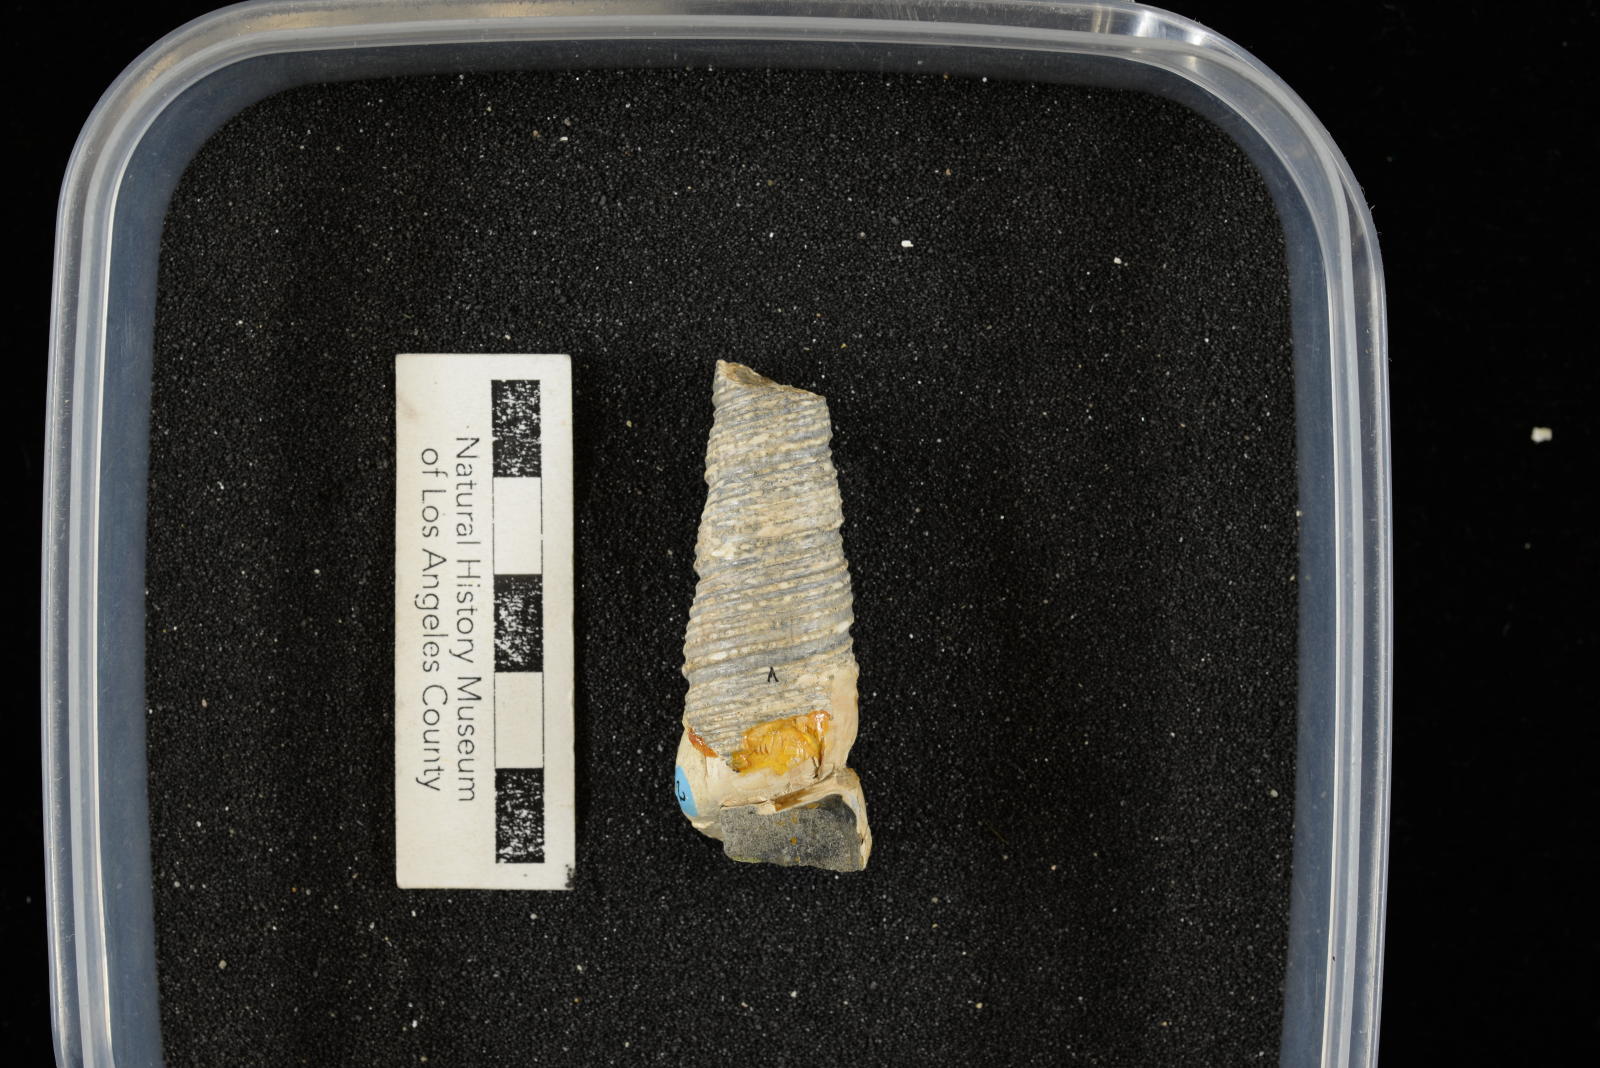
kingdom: Animalia
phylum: Mollusca
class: Gastropoda
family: Turritellidae
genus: Turritella
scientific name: Turritella chicoensis
